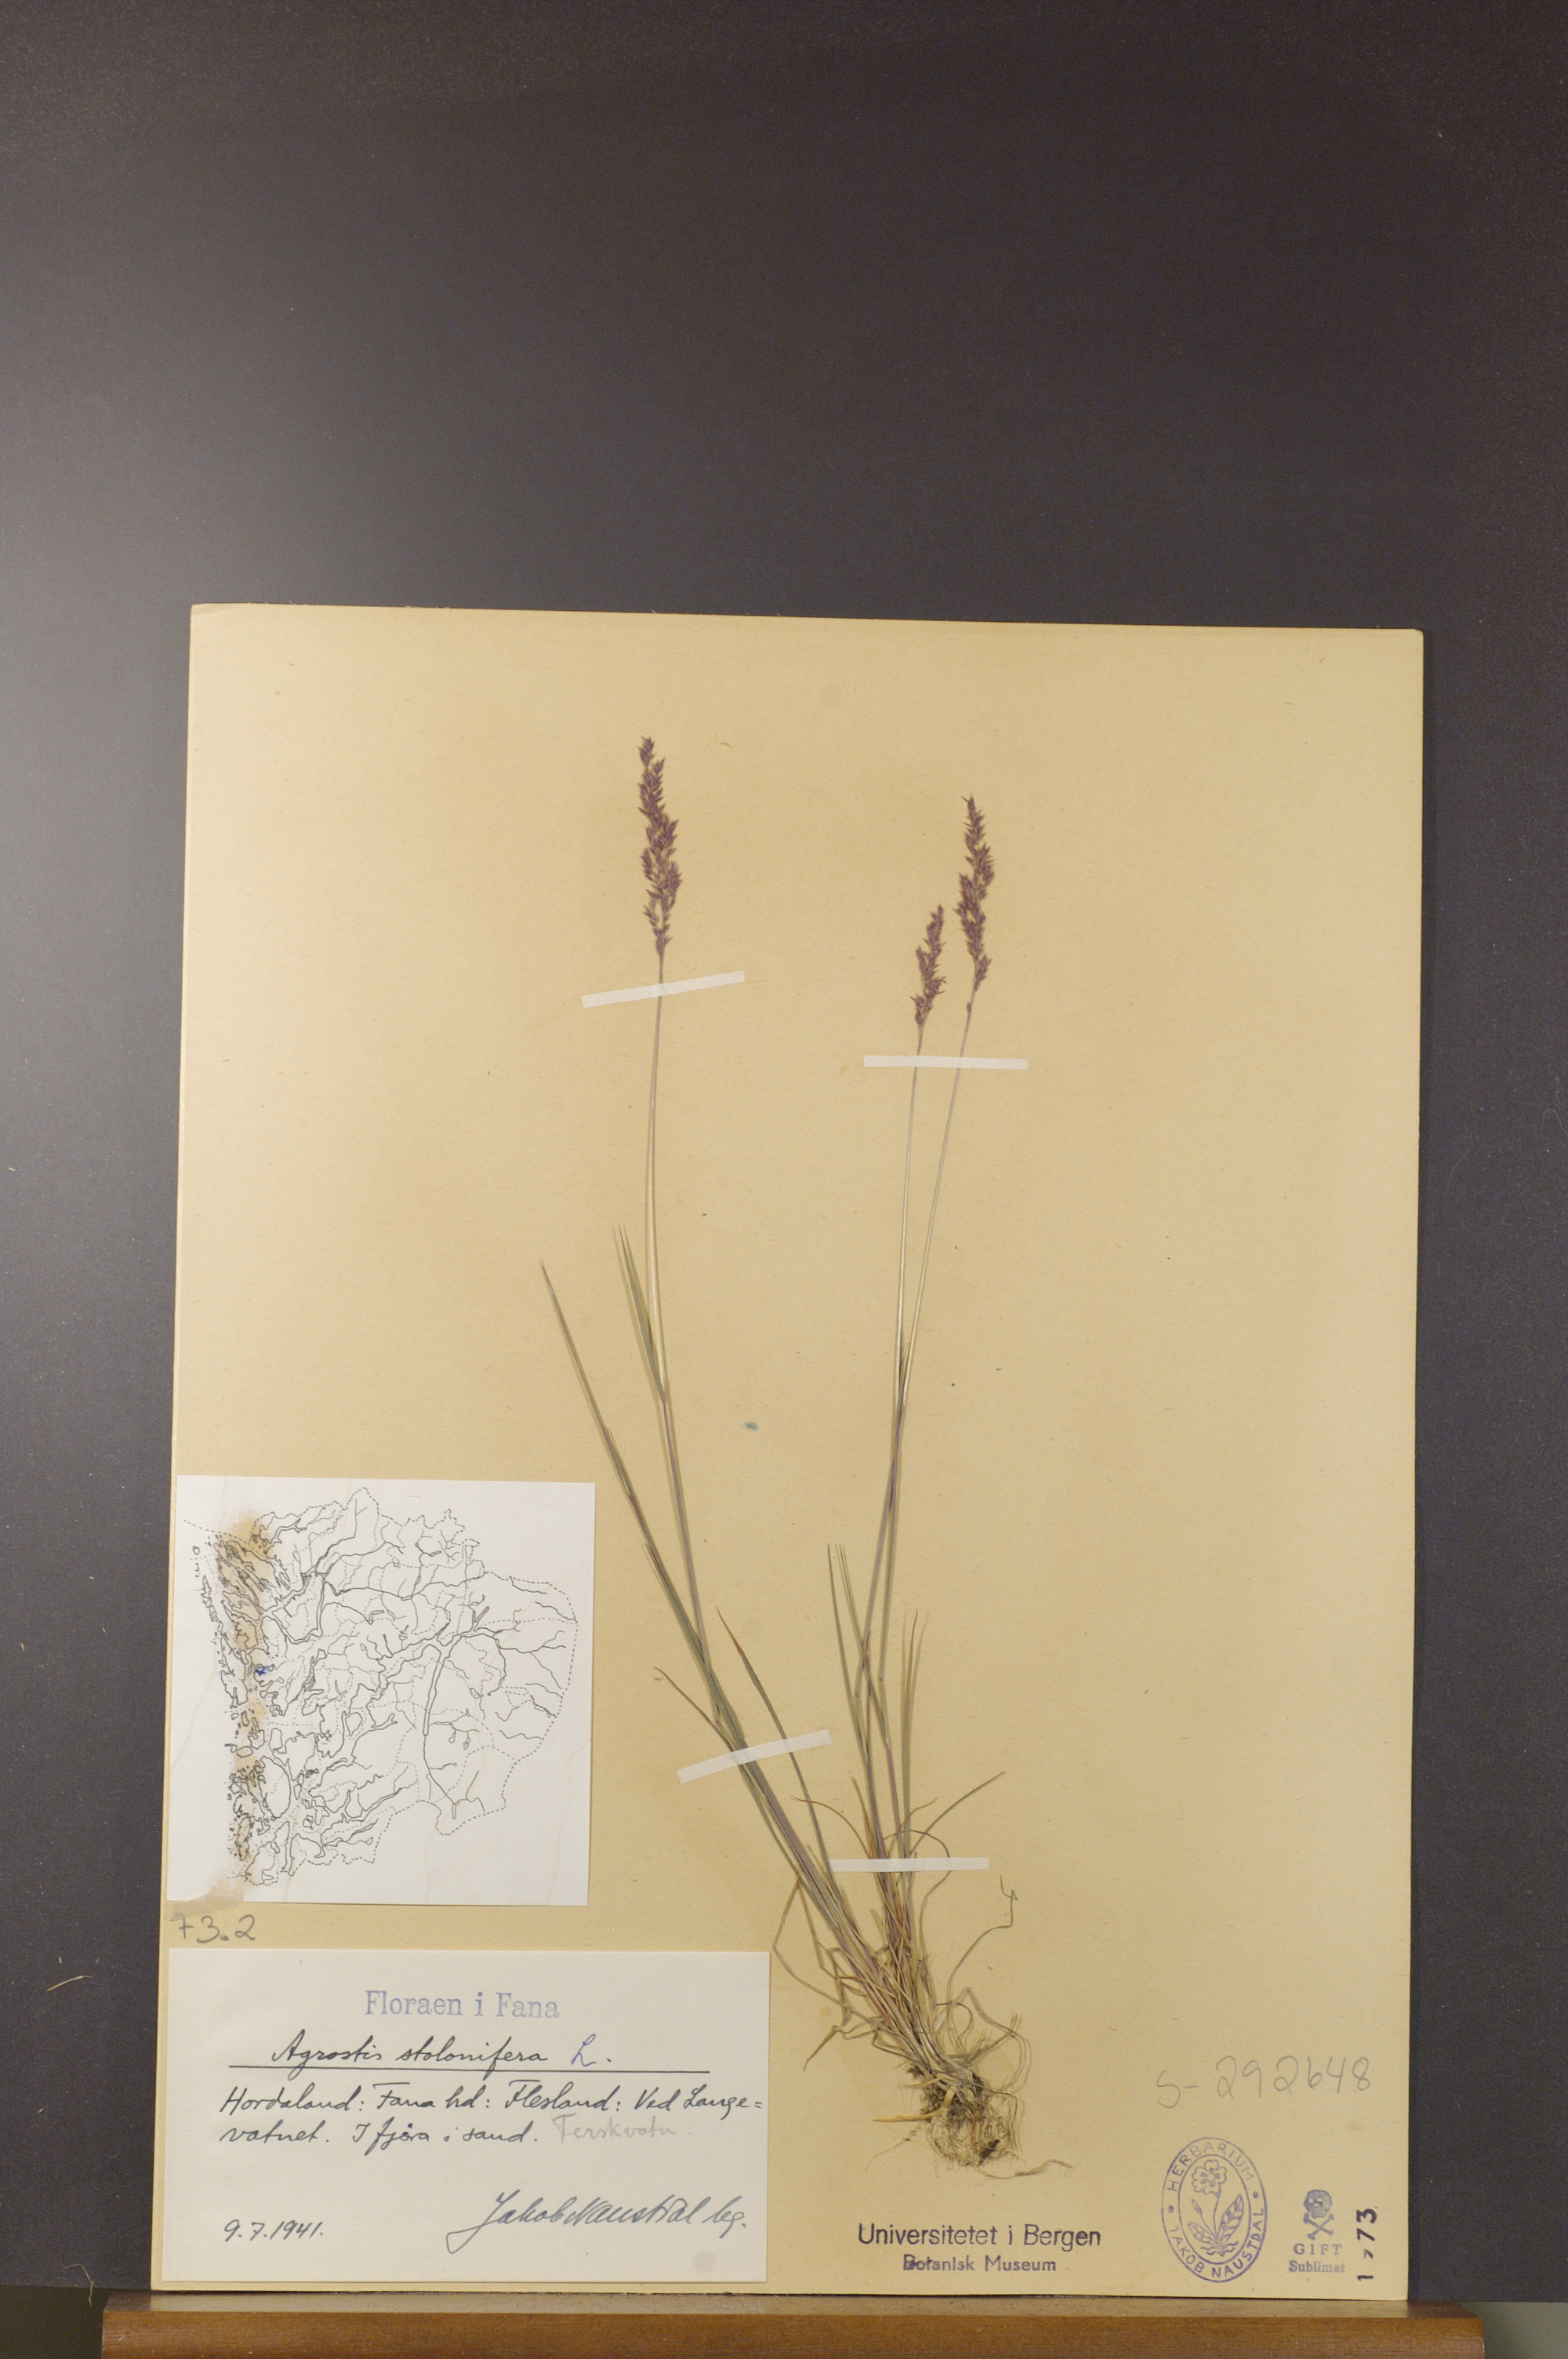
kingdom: Plantae
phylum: Tracheophyta
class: Liliopsida
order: Poales
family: Poaceae
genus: Agrostis
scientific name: Agrostis stolonifera
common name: Creeping bentgrass
